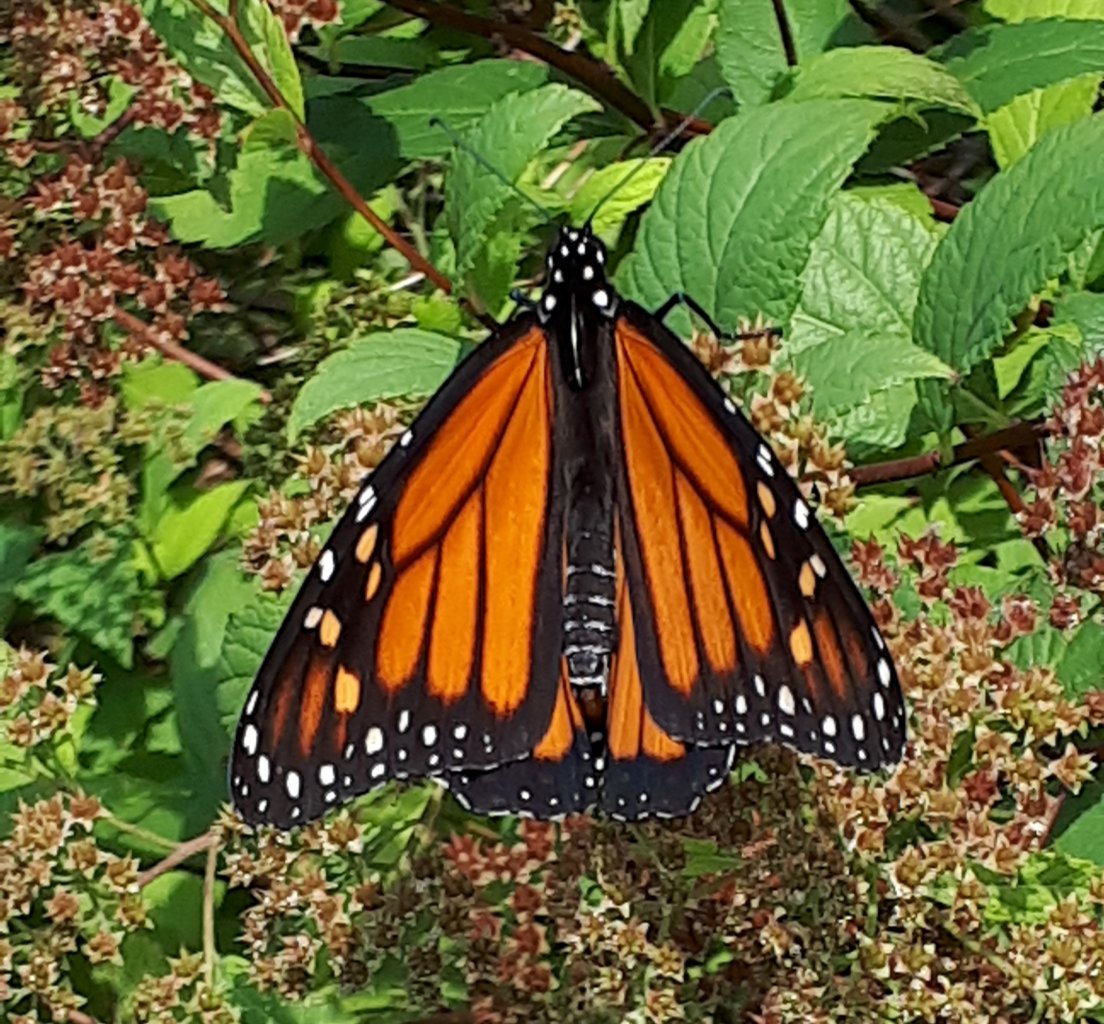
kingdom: Animalia
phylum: Arthropoda
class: Insecta
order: Lepidoptera
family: Nymphalidae
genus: Danaus
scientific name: Danaus plexippus
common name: Monarch
